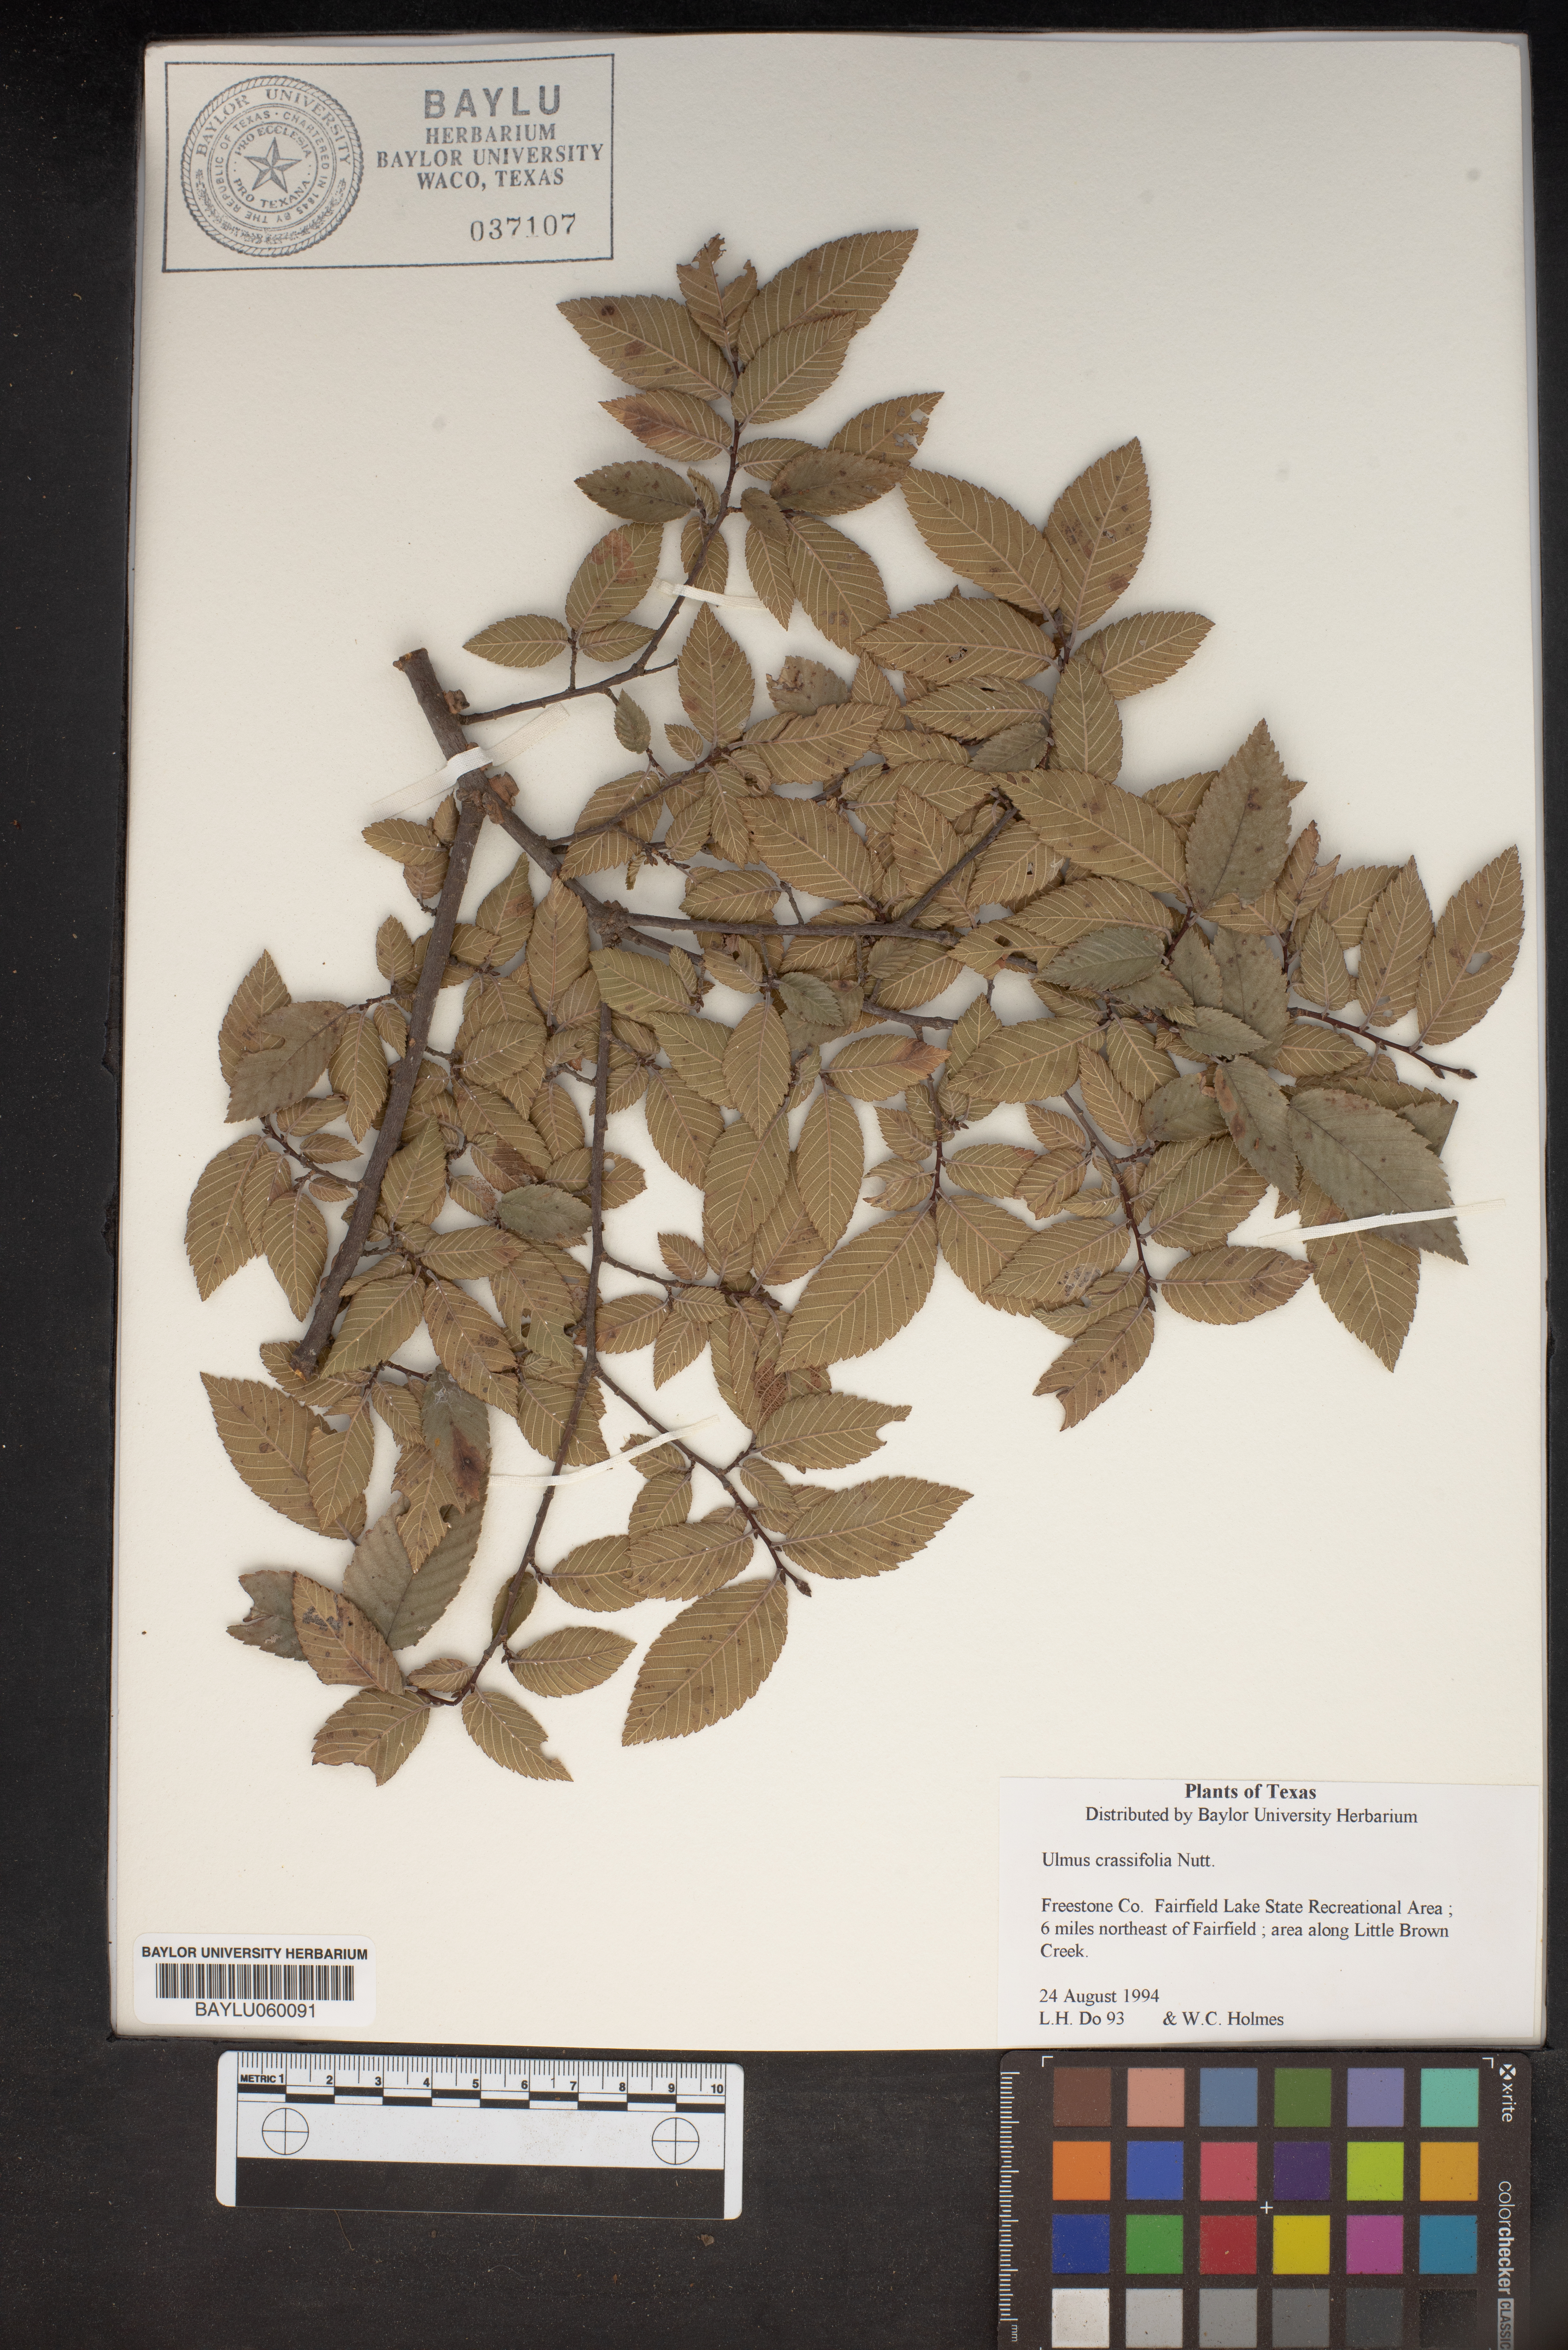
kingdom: Plantae
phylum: Tracheophyta
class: Magnoliopsida
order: Rosales
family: Ulmaceae
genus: Ulmus
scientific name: Ulmus crassifolia
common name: Basket elm
